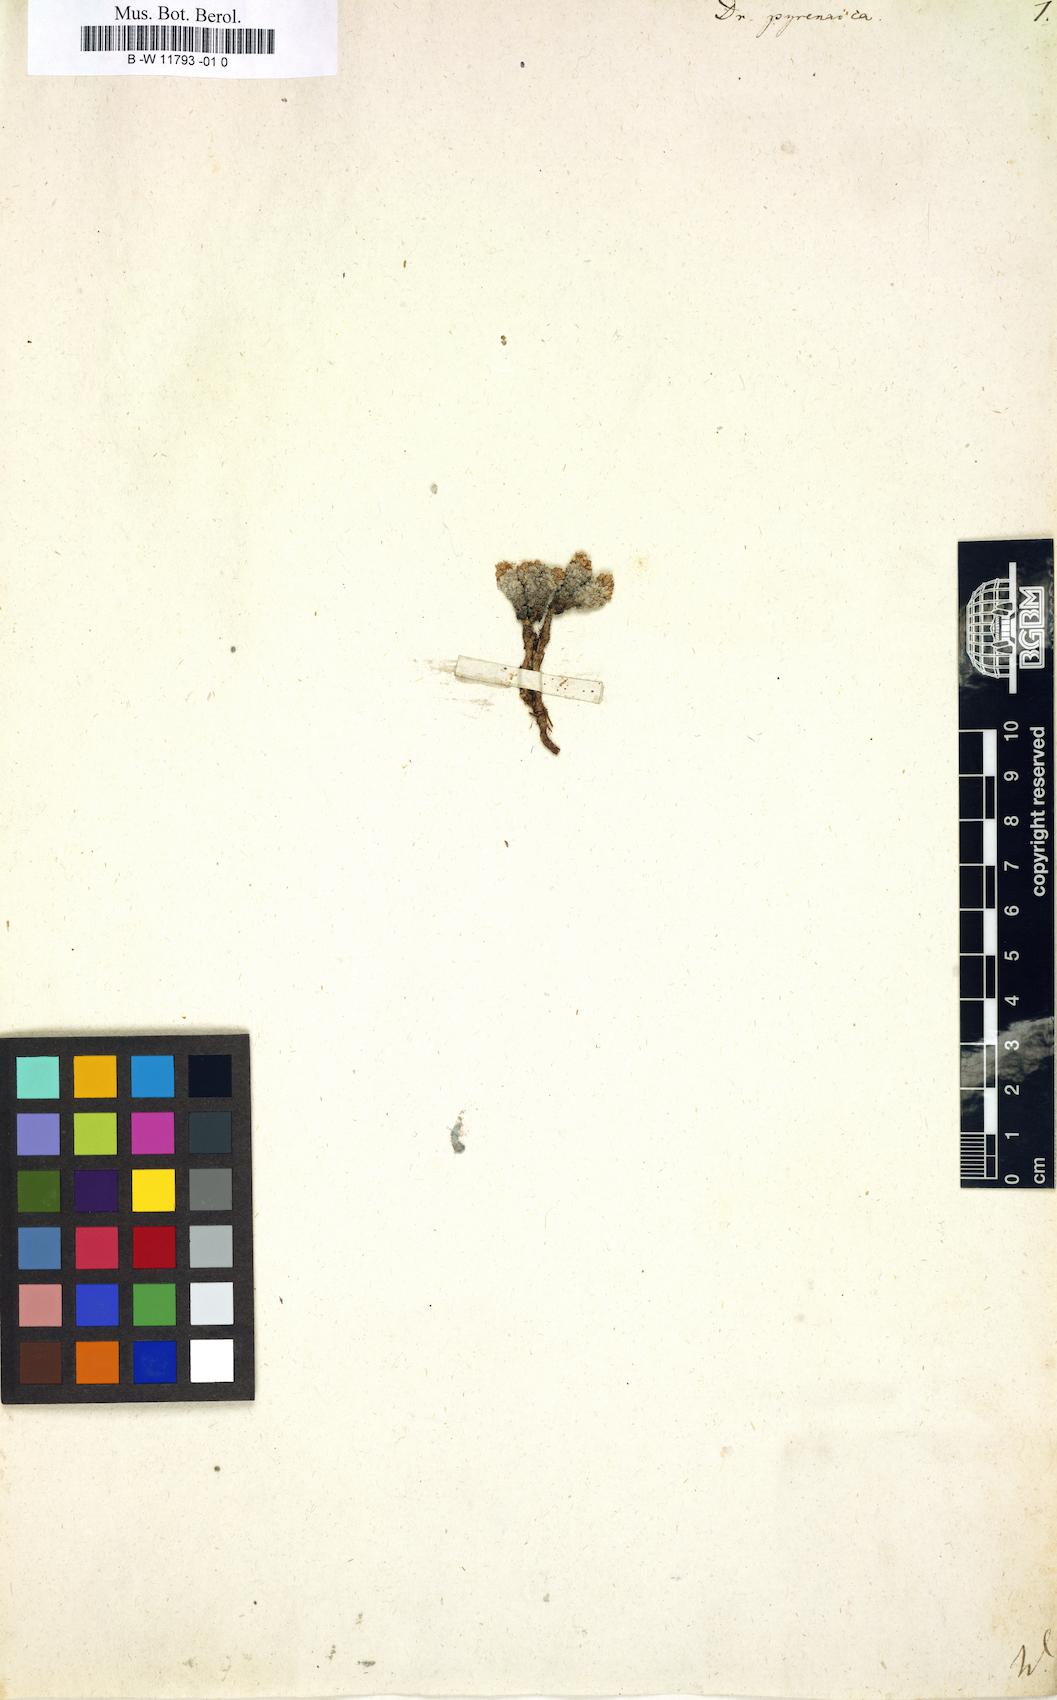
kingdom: Plantae
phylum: Tracheophyta
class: Magnoliopsida
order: Brassicales
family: Brassicaceae
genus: Draba
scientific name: Draba pyrenaica
